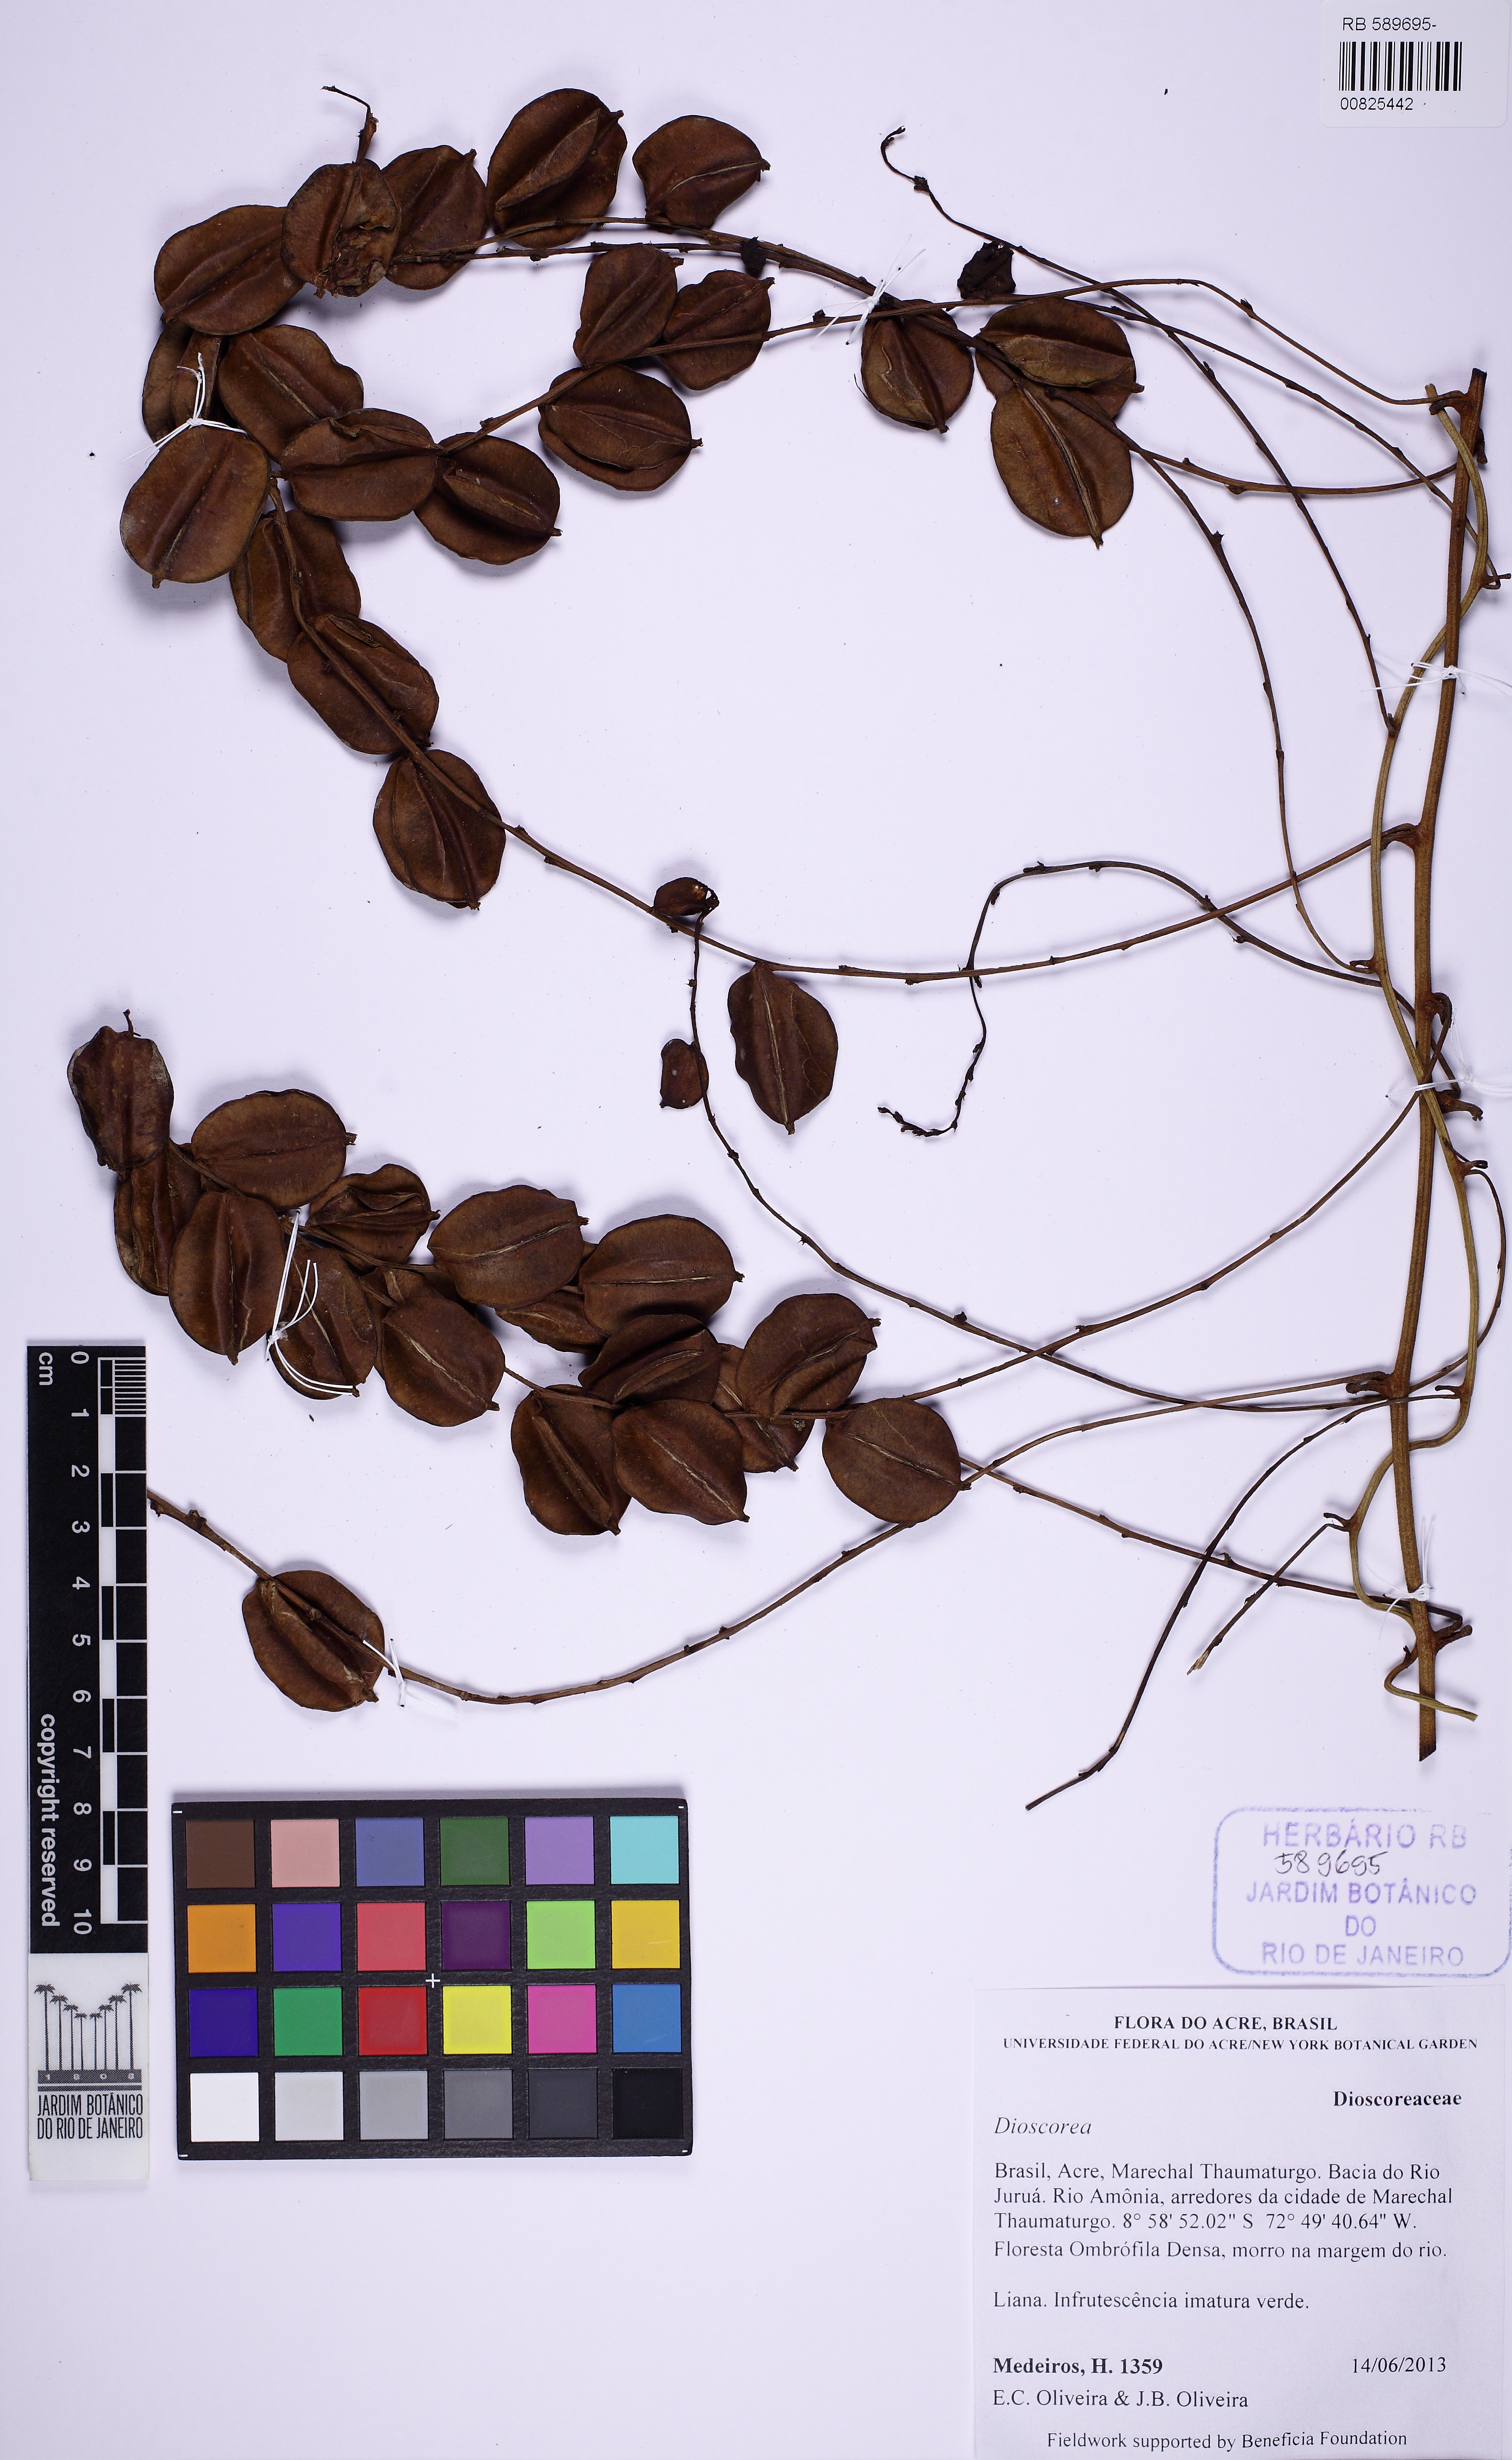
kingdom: Plantae
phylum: Tracheophyta
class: Liliopsida
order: Dioscoreales
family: Dioscoreaceae
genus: Dioscorea
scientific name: Dioscorea acanthogene
